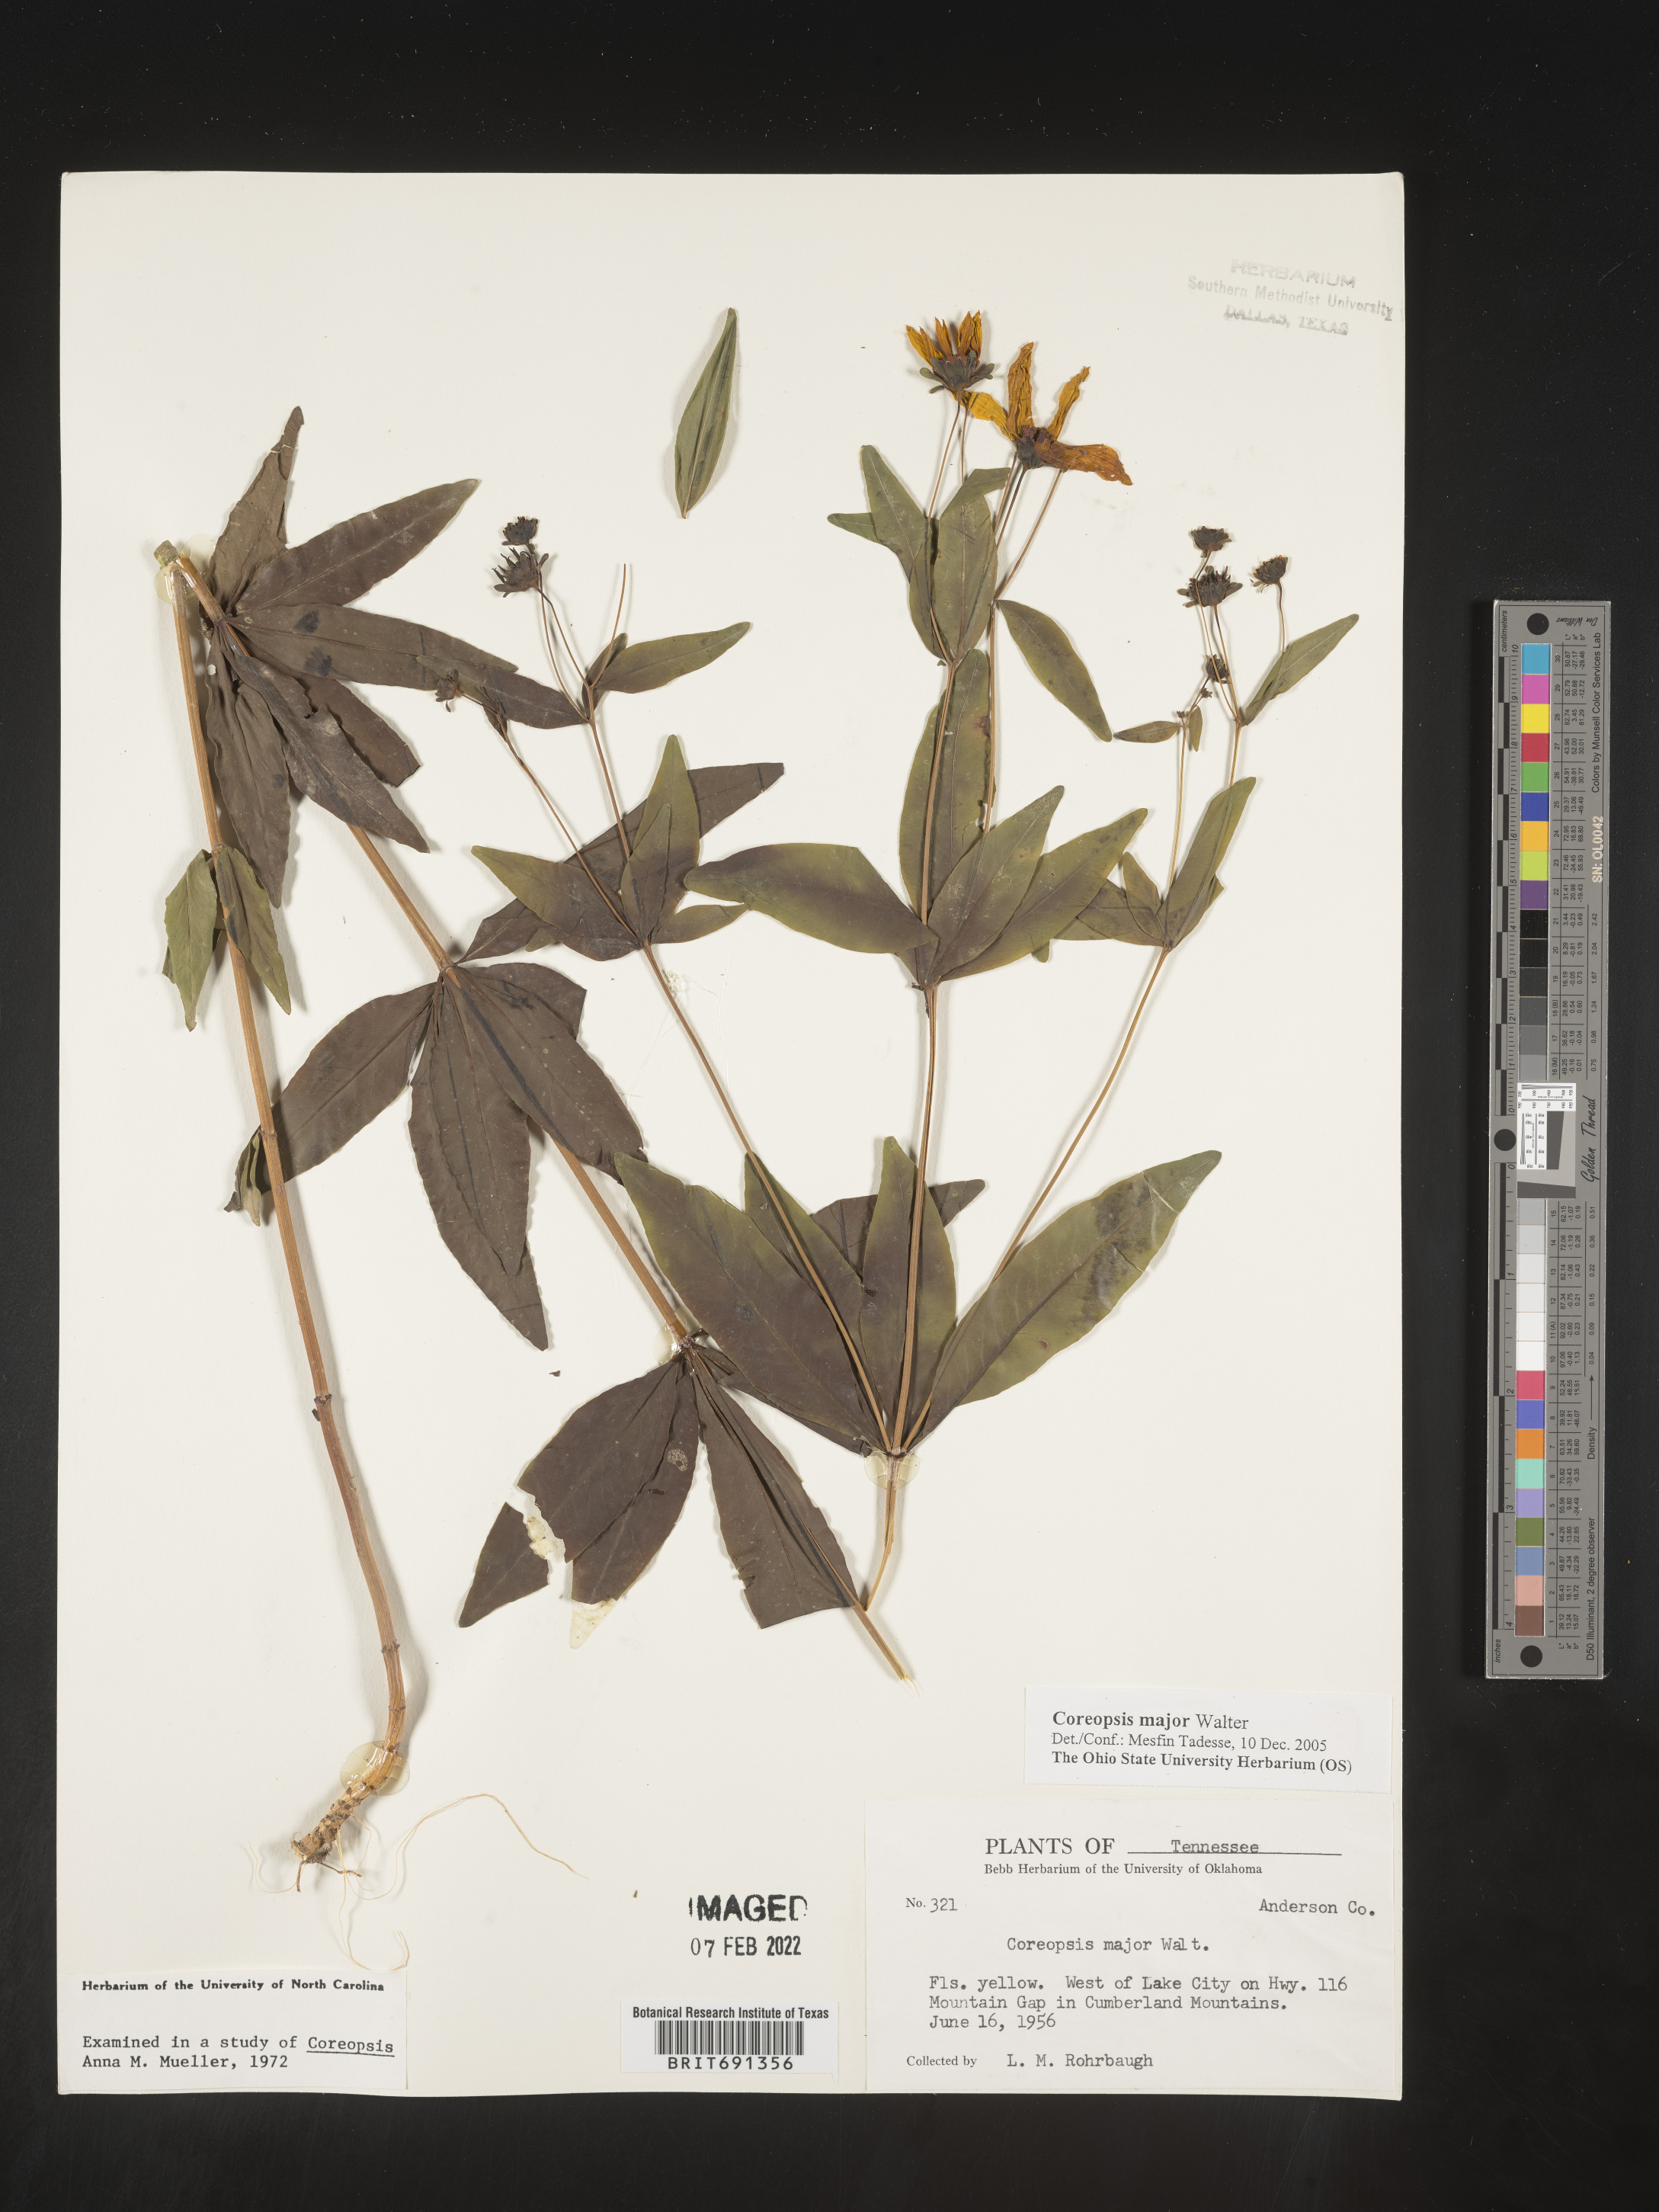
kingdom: Plantae
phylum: Tracheophyta
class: Magnoliopsida
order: Asterales
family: Asteraceae
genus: Coreopsis
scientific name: Coreopsis major
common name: Forest tickseed
